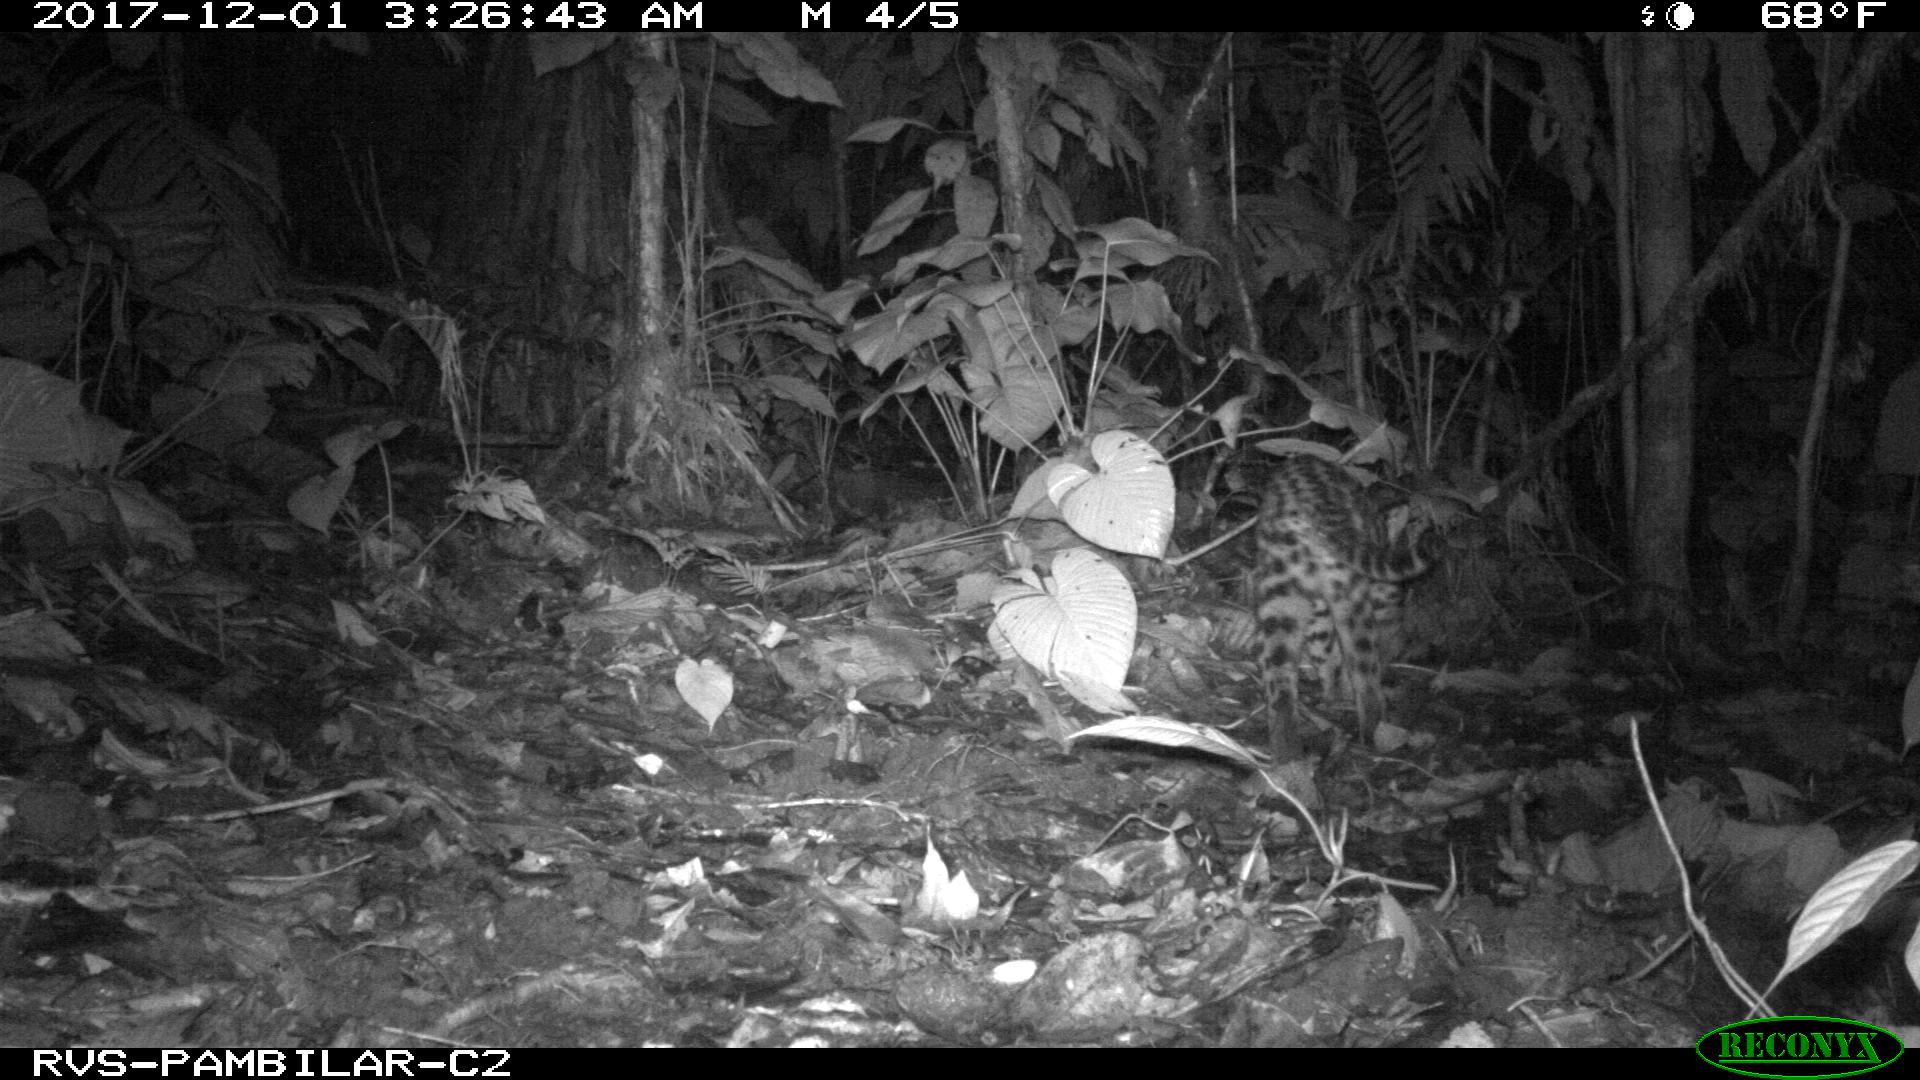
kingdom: Animalia
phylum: Chordata
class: Mammalia
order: Carnivora
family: Felidae
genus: Leopardus
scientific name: Leopardus pardalis
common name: Ocelot
